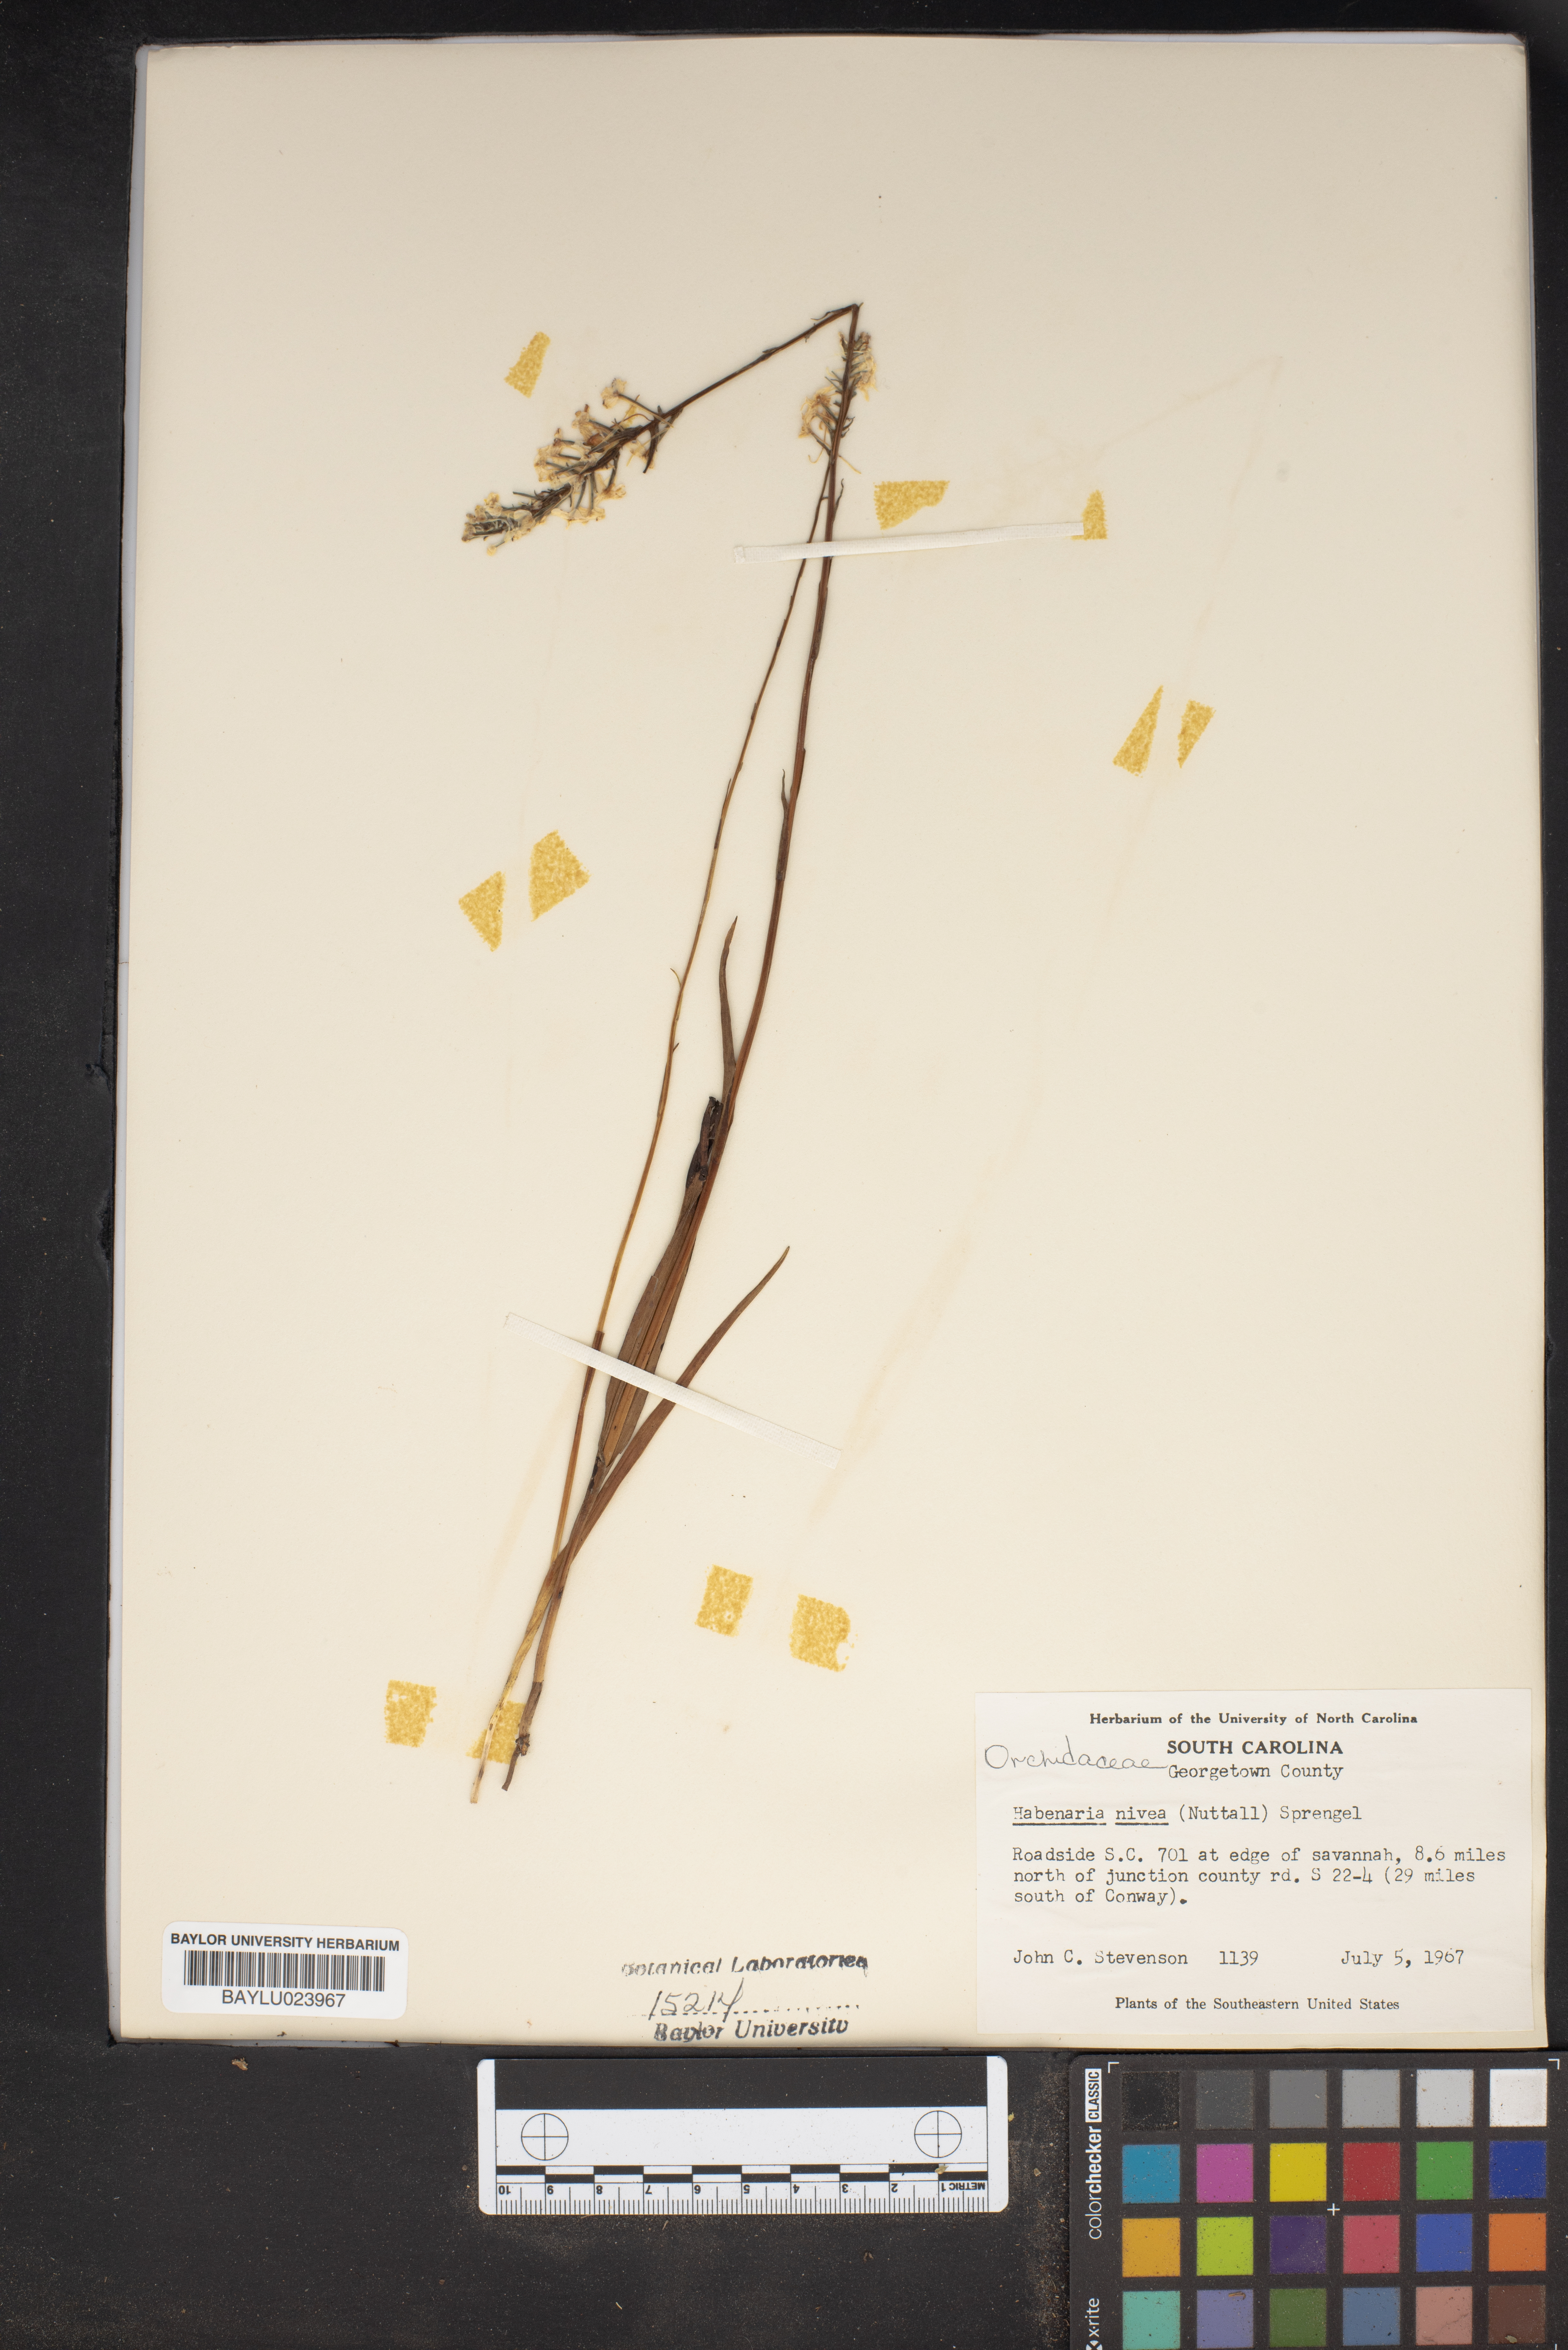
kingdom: Plantae
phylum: Tracheophyta
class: Liliopsida
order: Asparagales
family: Orchidaceae
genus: Platanthera
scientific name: Platanthera nivea
